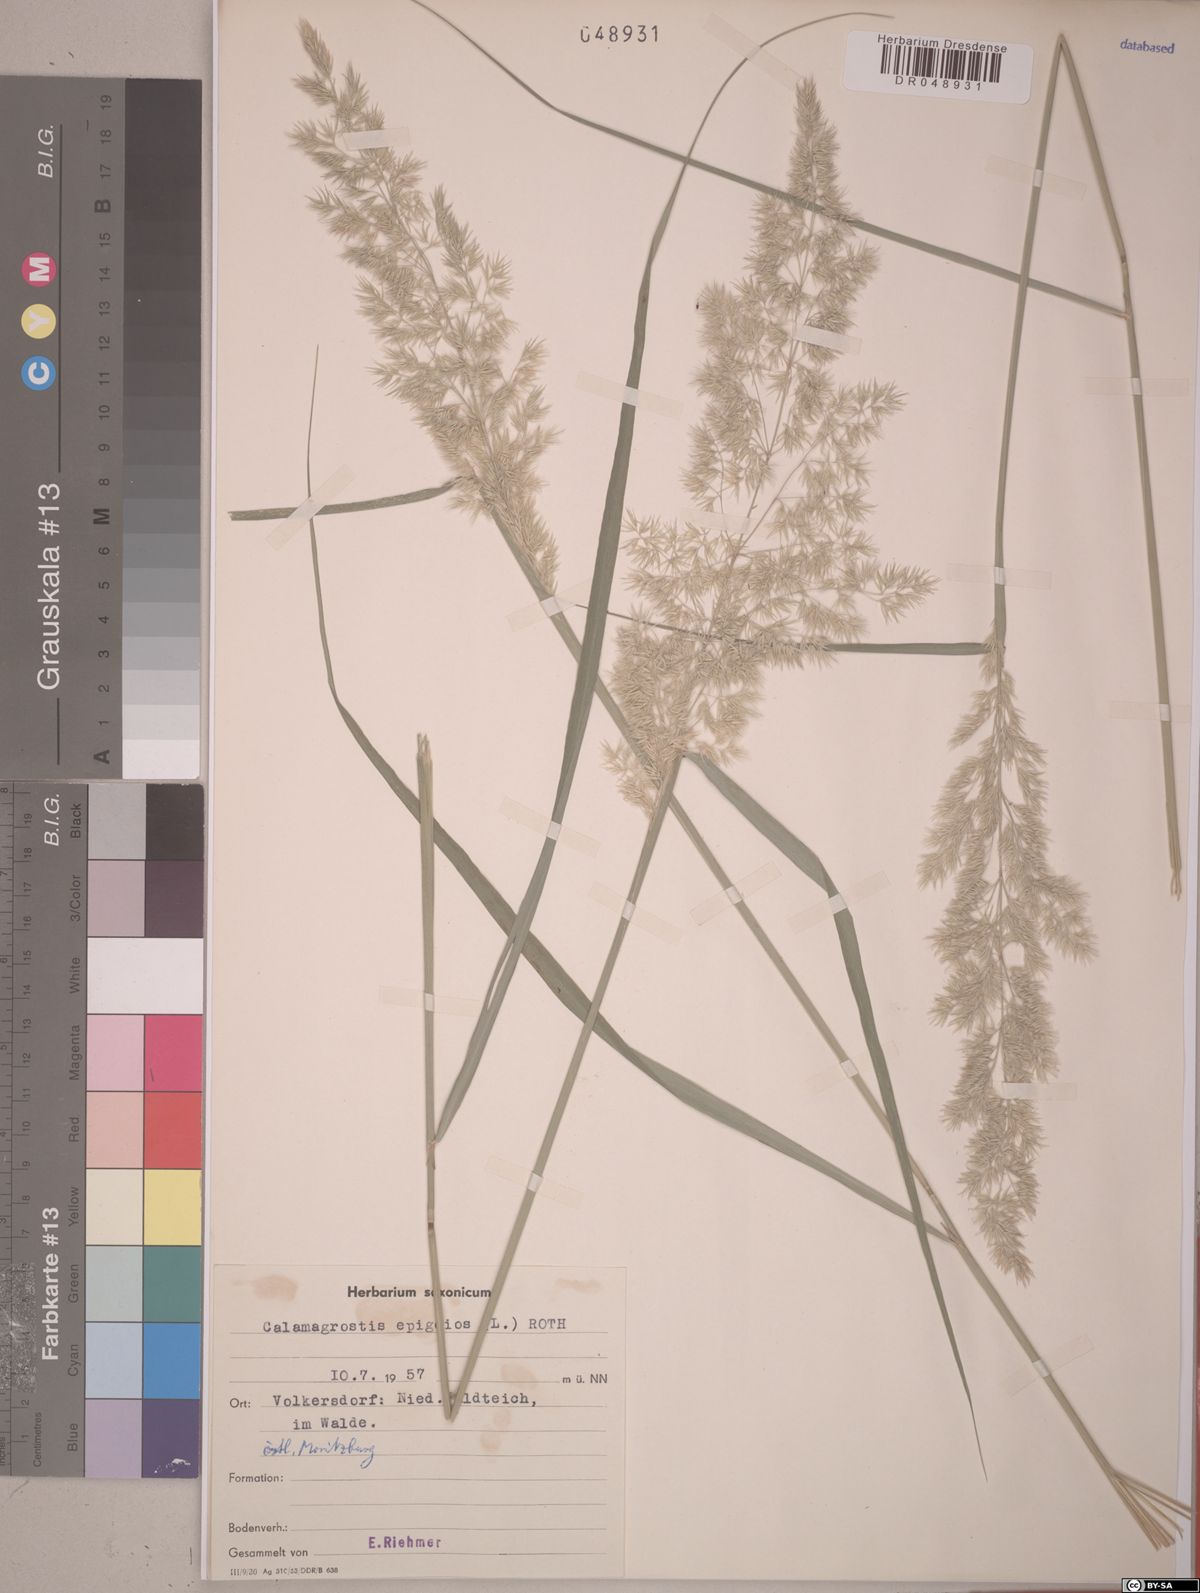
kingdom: Plantae
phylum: Tracheophyta
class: Liliopsida
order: Poales
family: Poaceae
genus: Calamagrostis
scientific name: Calamagrostis epigejos
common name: Wood small-reed
